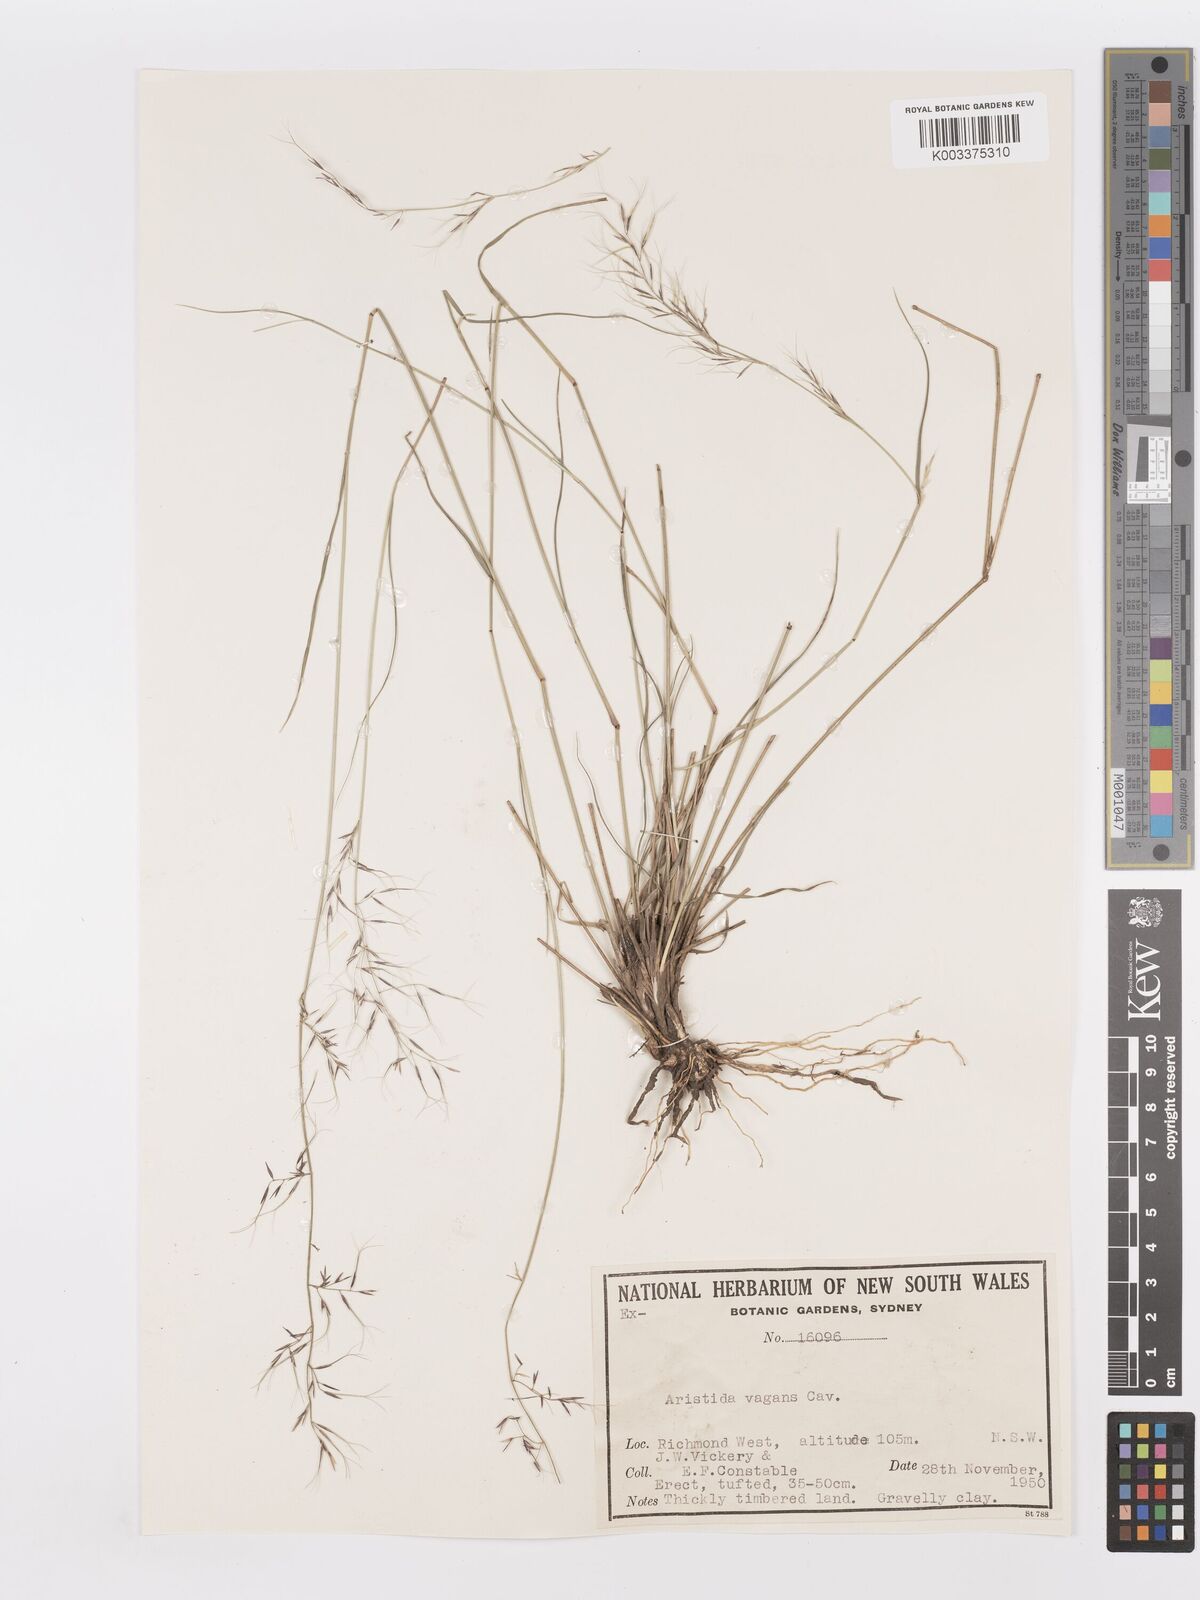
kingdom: Plantae
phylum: Tracheophyta
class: Liliopsida
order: Poales
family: Poaceae
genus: Aristida
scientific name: Aristida vagans
